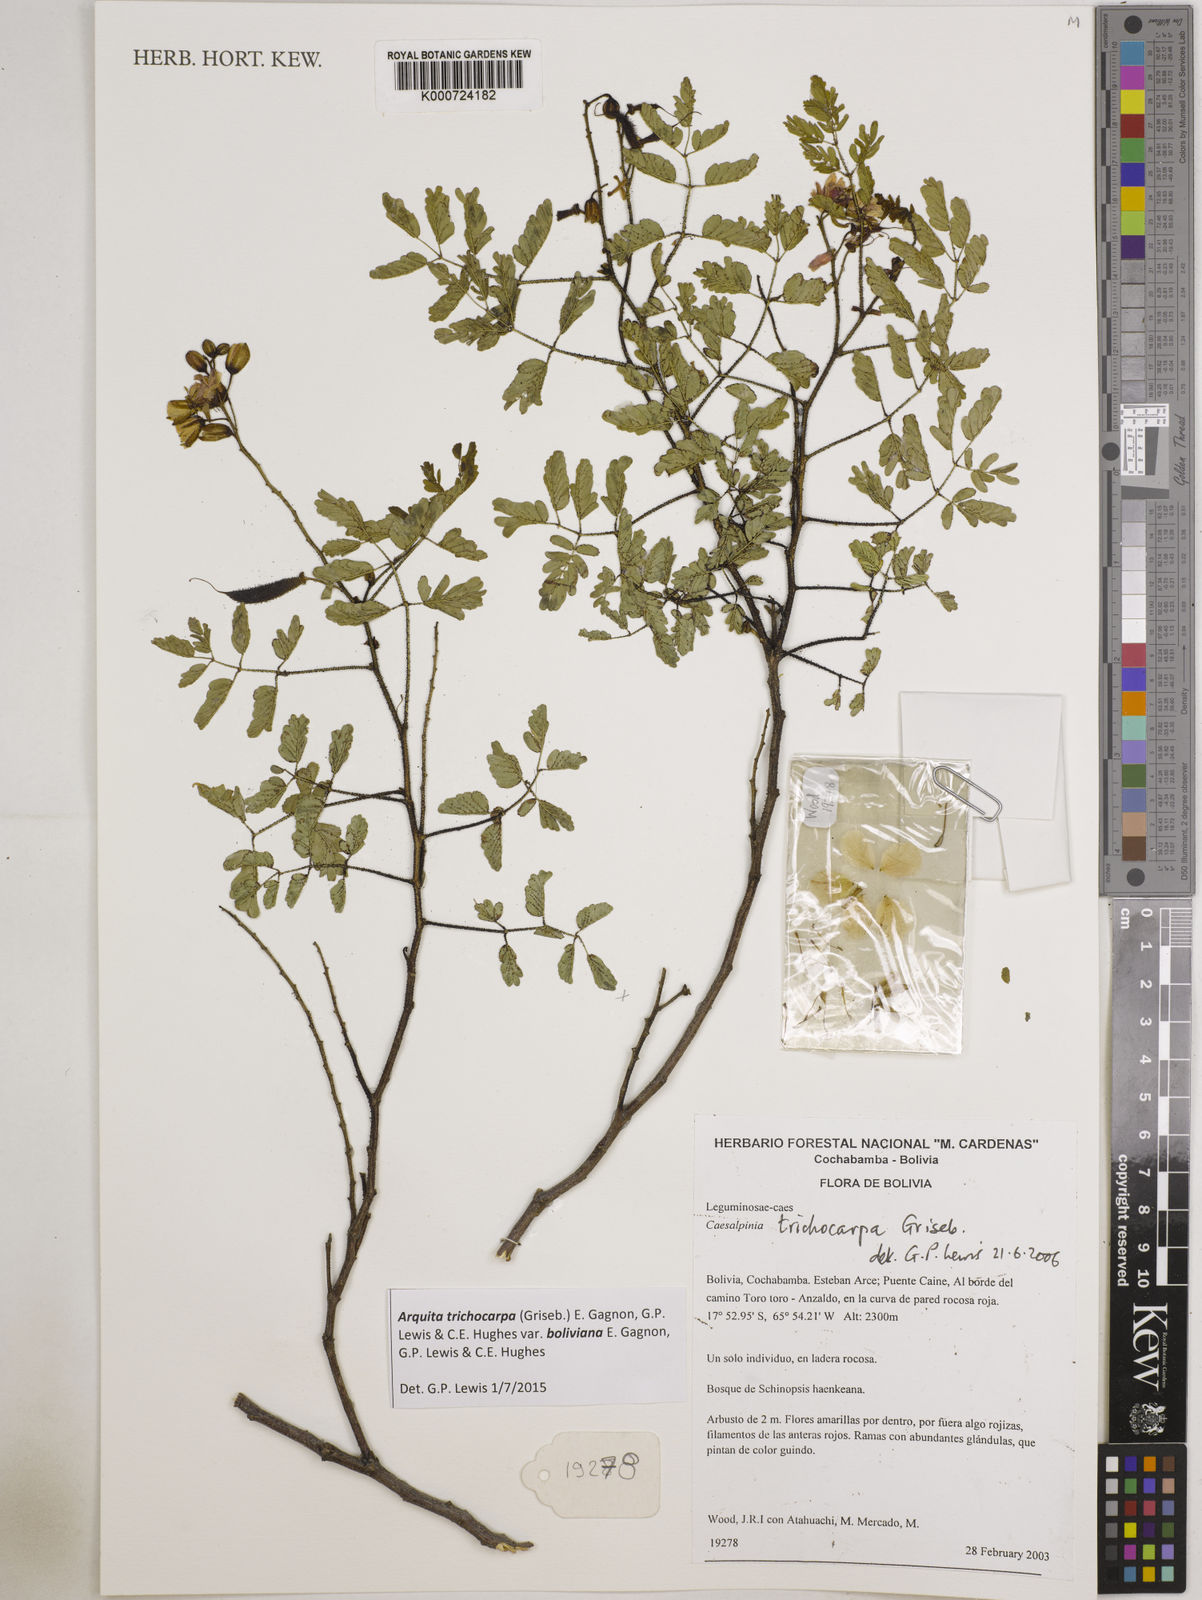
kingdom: Plantae
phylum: Tracheophyta
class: Magnoliopsida
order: Fabales
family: Fabaceae
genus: Arquita
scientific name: Arquita trichocarpa
